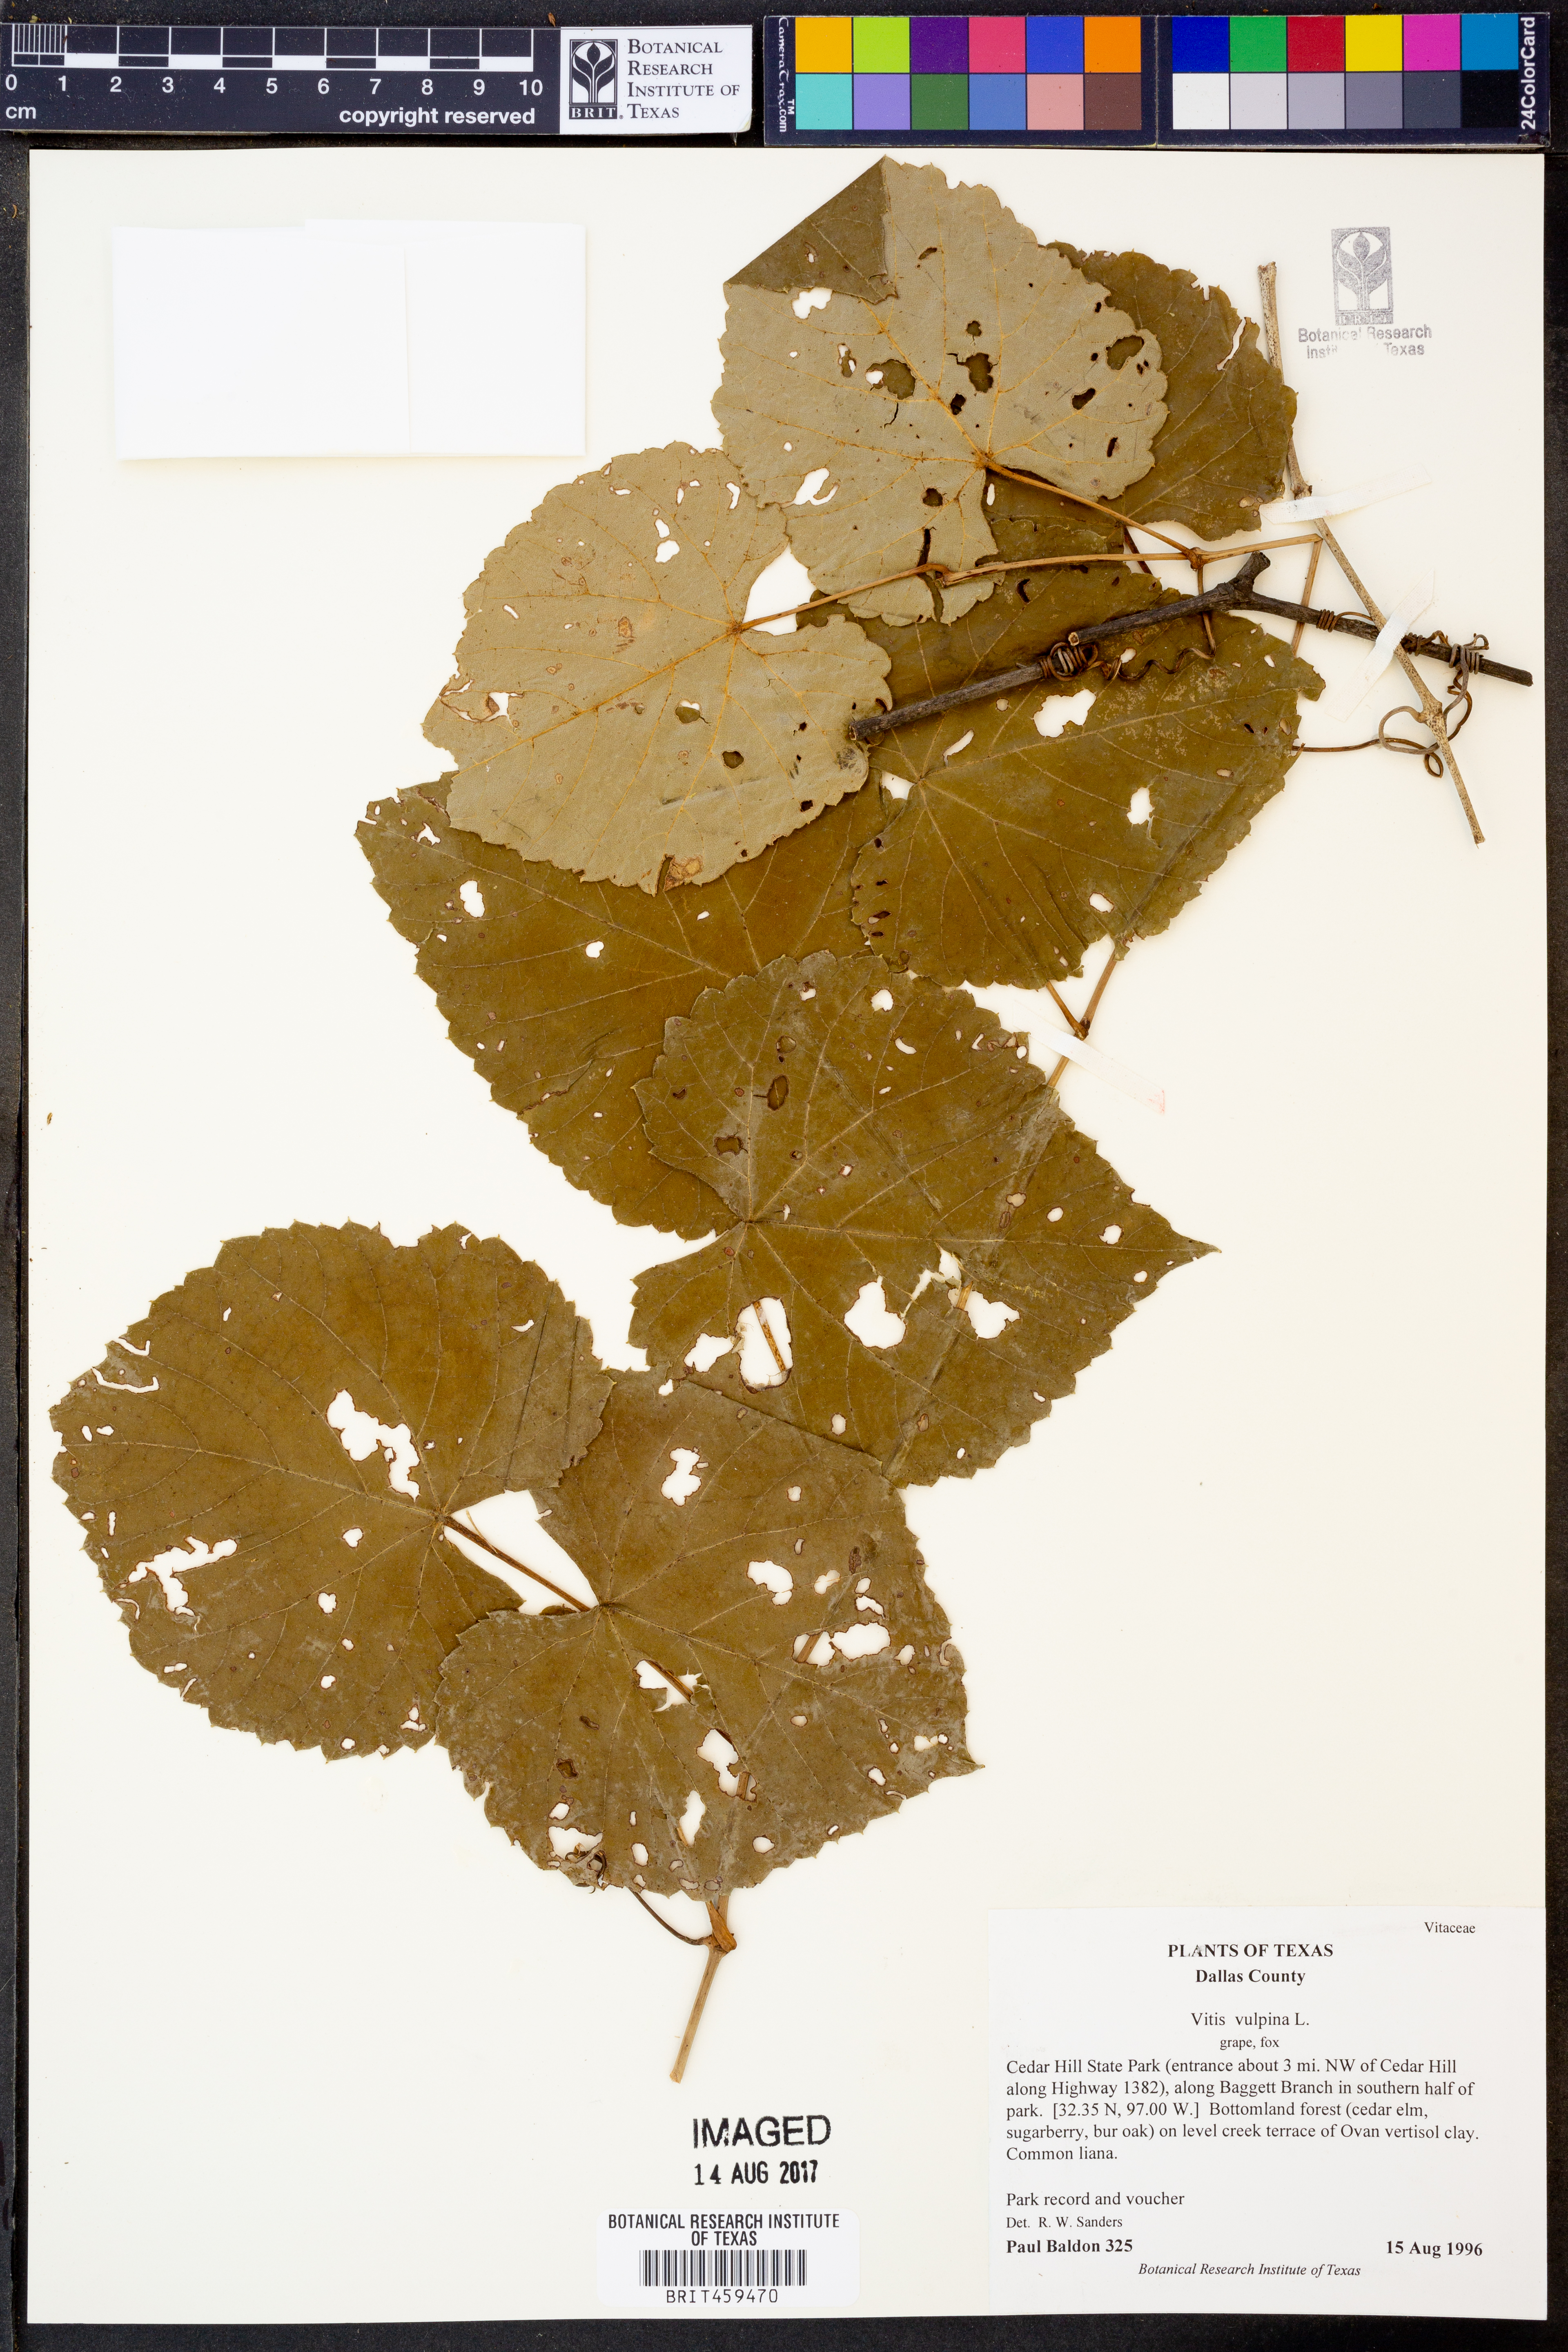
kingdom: Plantae
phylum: Tracheophyta
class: Magnoliopsida
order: Vitales
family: Vitaceae
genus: Vitis
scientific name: Vitis vulpina
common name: Frost grape
